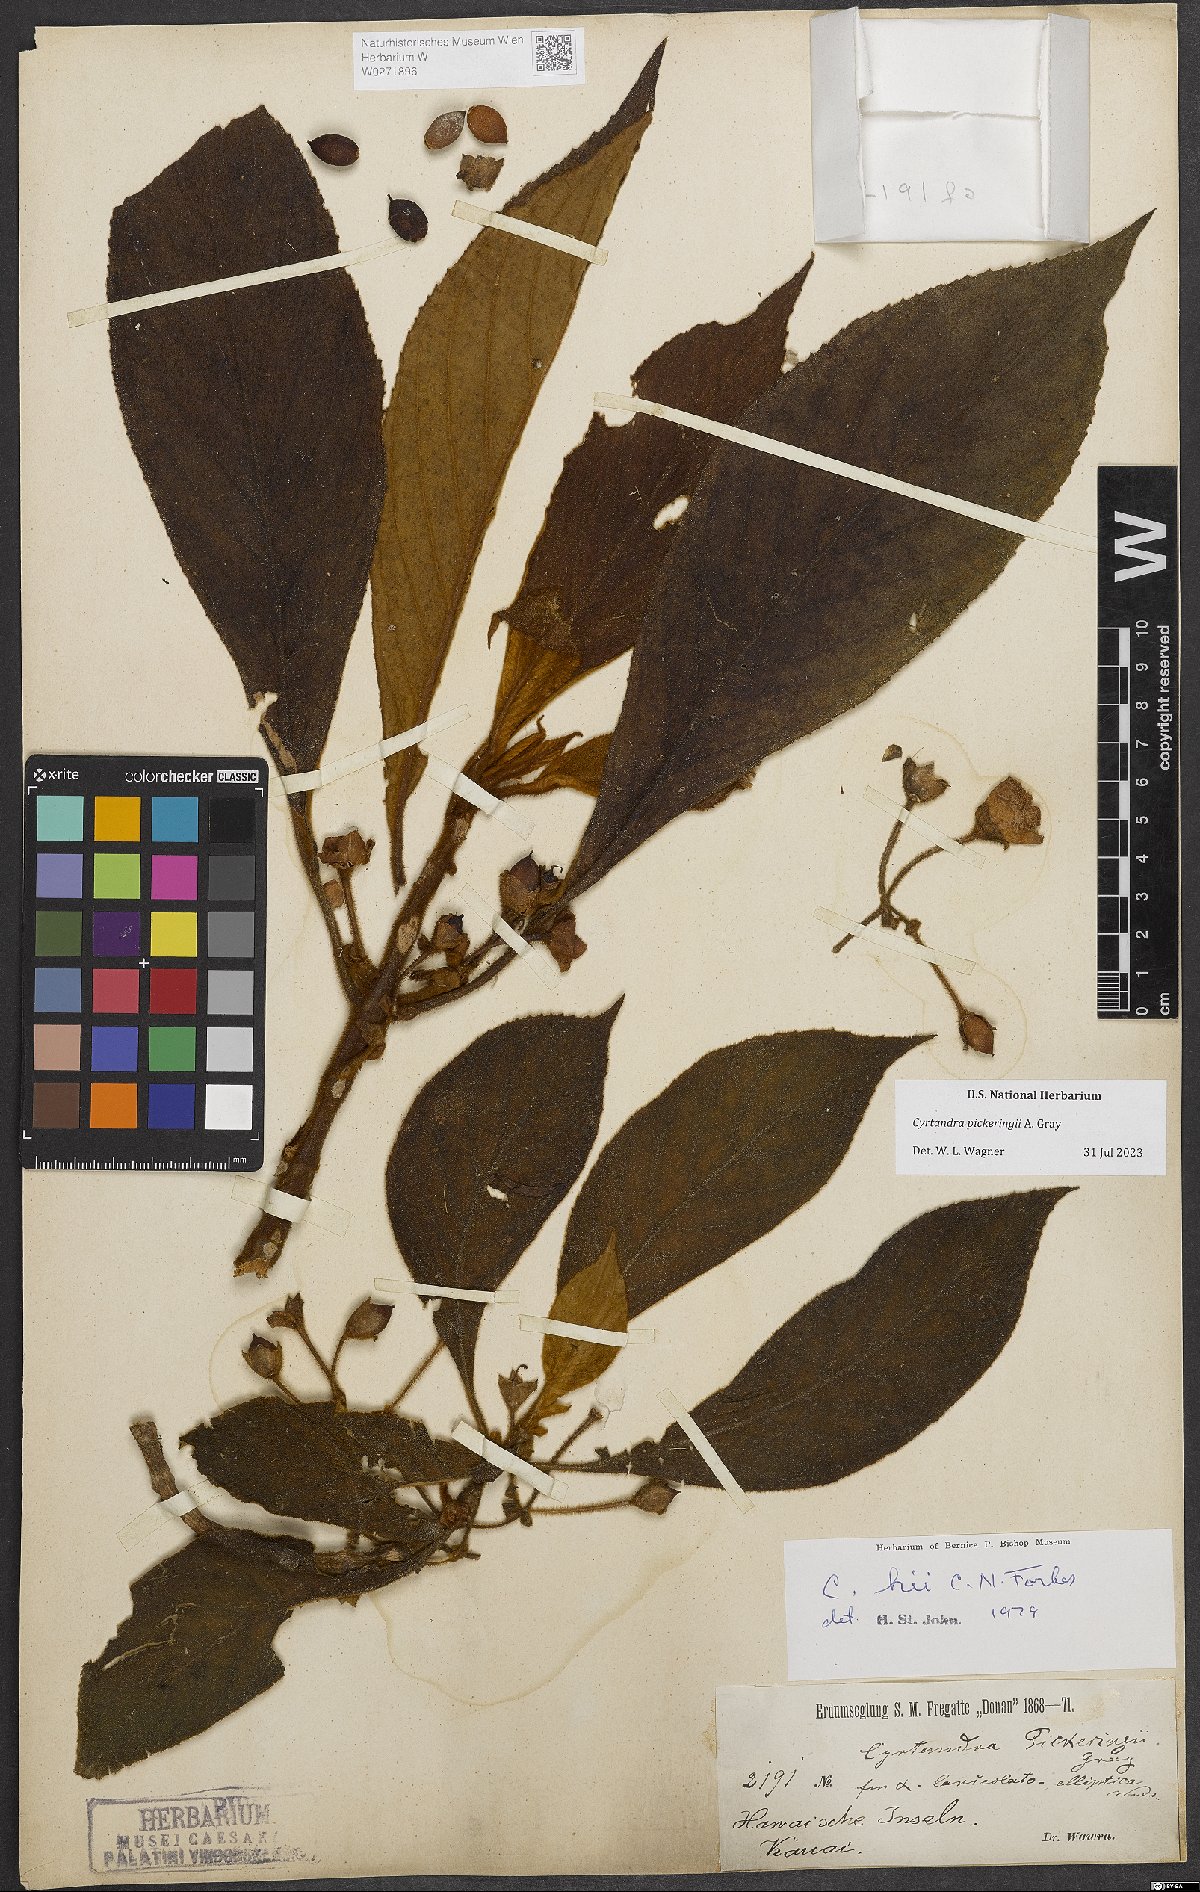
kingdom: Plantae
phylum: Tracheophyta
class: Magnoliopsida
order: Lamiales
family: Gesneriaceae
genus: Cyrtandra
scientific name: Cyrtandra pickeringii
